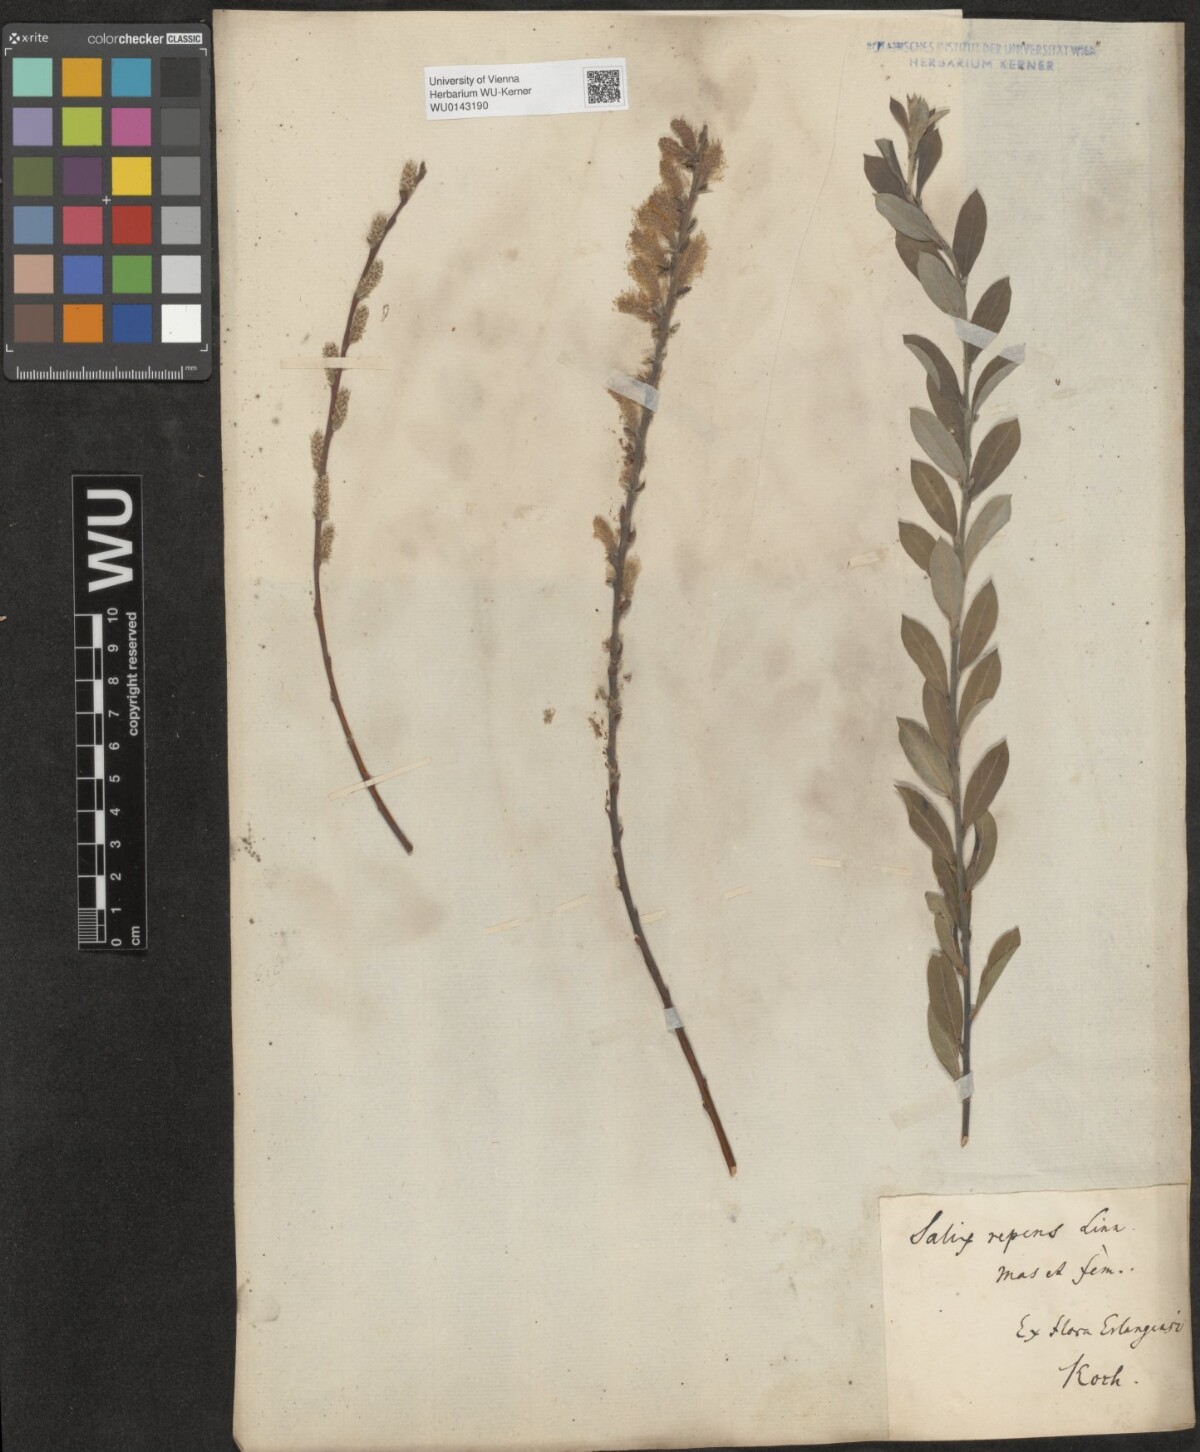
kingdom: Plantae
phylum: Tracheophyta
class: Magnoliopsida
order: Malpighiales
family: Salicaceae
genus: Salix
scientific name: Salix repens
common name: Creeping willow
